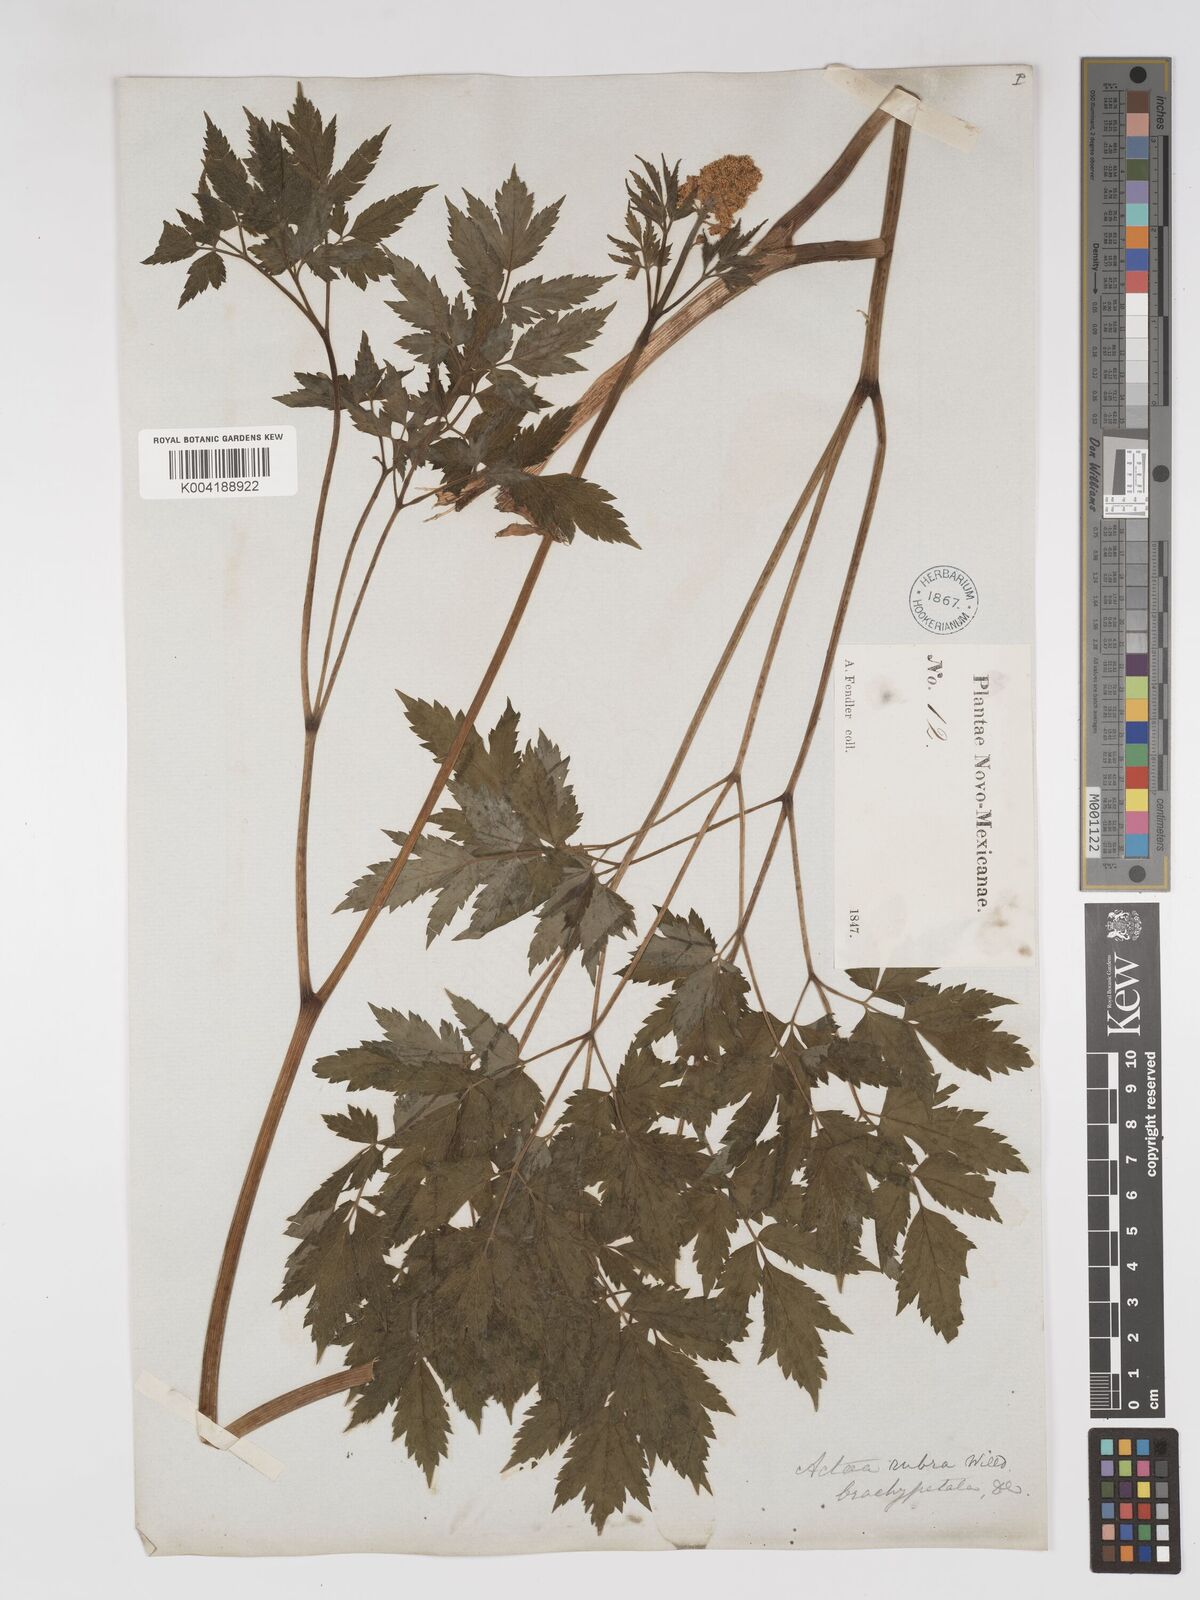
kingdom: Plantae
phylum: Tracheophyta
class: Magnoliopsida
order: Ranunculales
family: Ranunculaceae
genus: Actaea
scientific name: Actaea rubra
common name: Red baneberry
